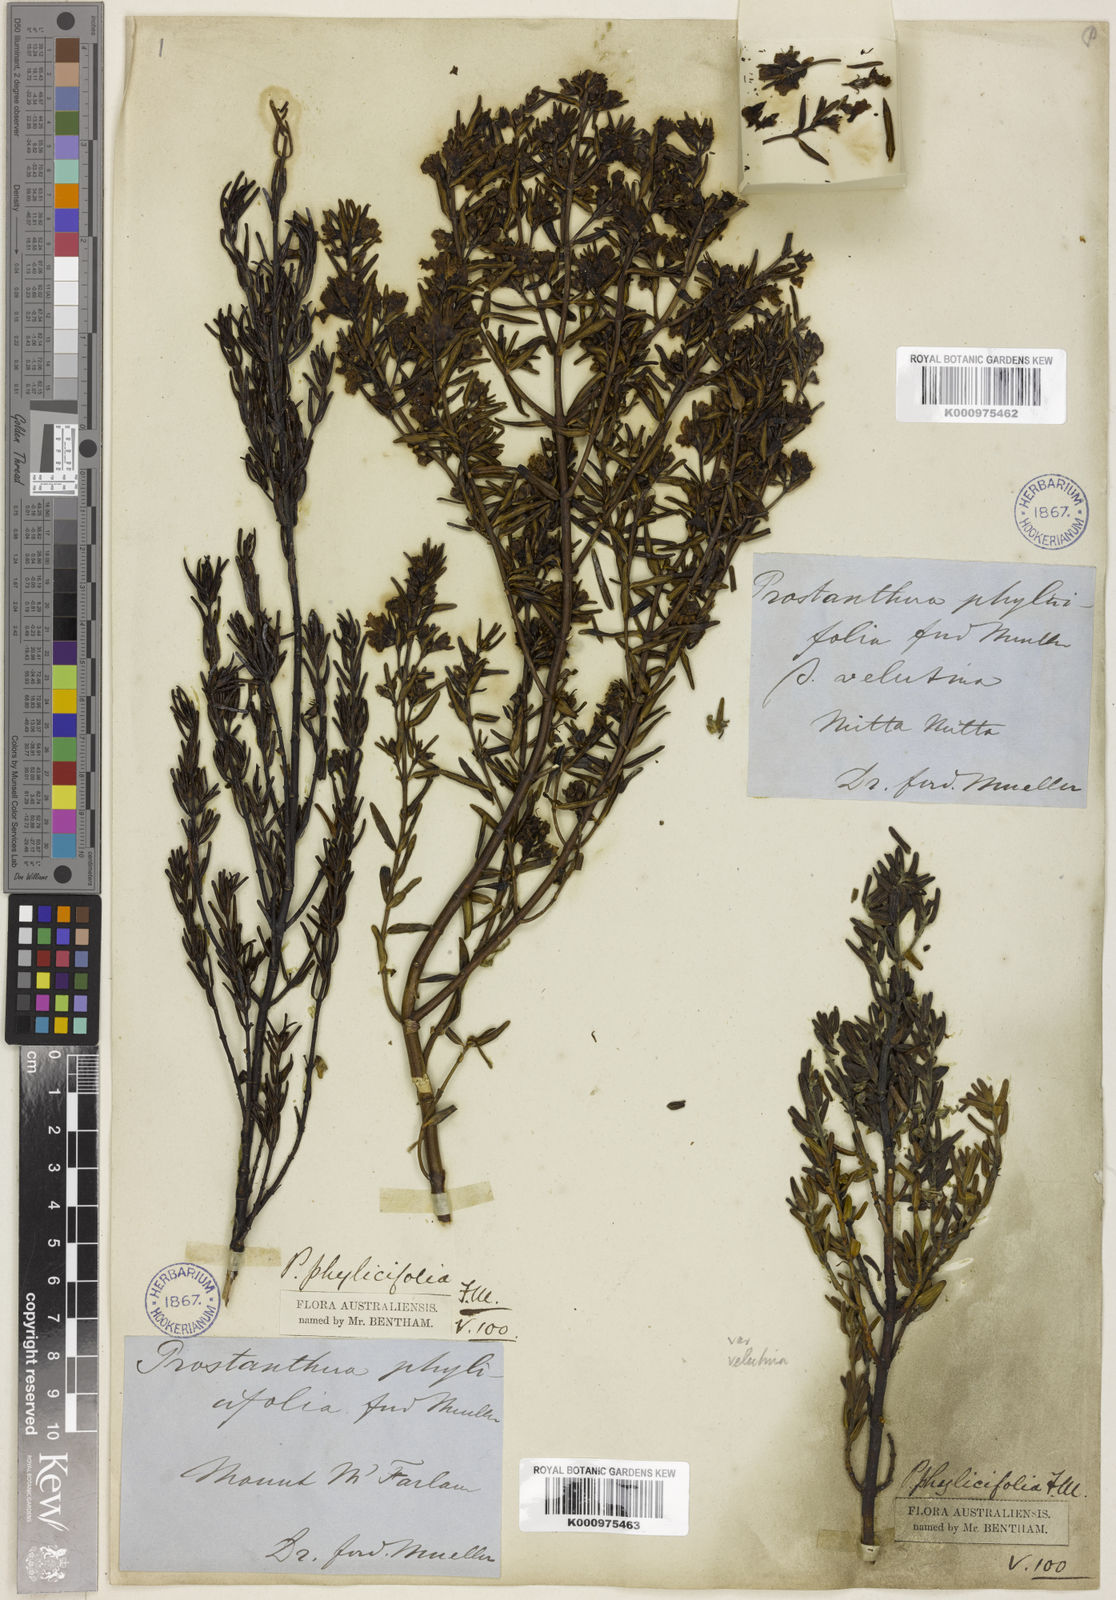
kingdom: Plantae
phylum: Tracheophyta
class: Magnoliopsida
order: Lamiales
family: Lamiaceae
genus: Prostanthera
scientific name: Prostanthera phylicifolia
